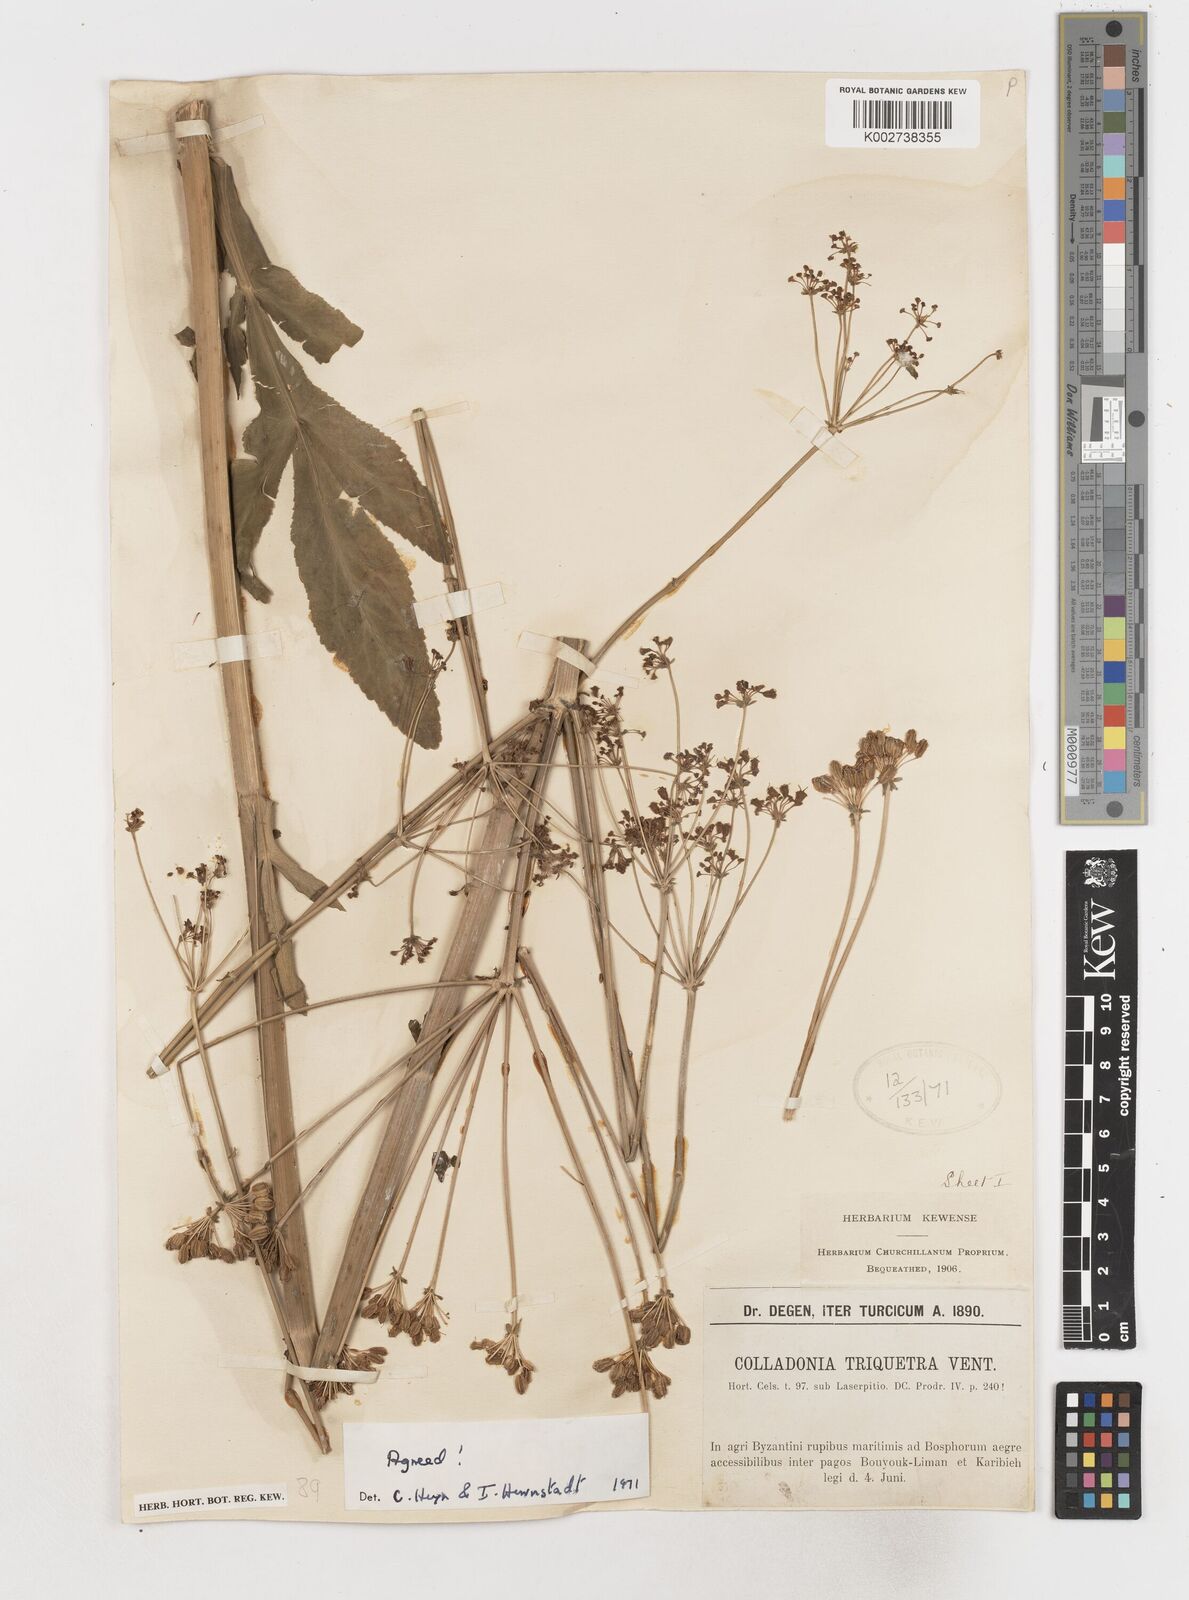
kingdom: Plantae
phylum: Tracheophyta
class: Magnoliopsida
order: Apiales
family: Apiaceae
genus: Heptaptera
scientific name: Heptaptera triquetra
